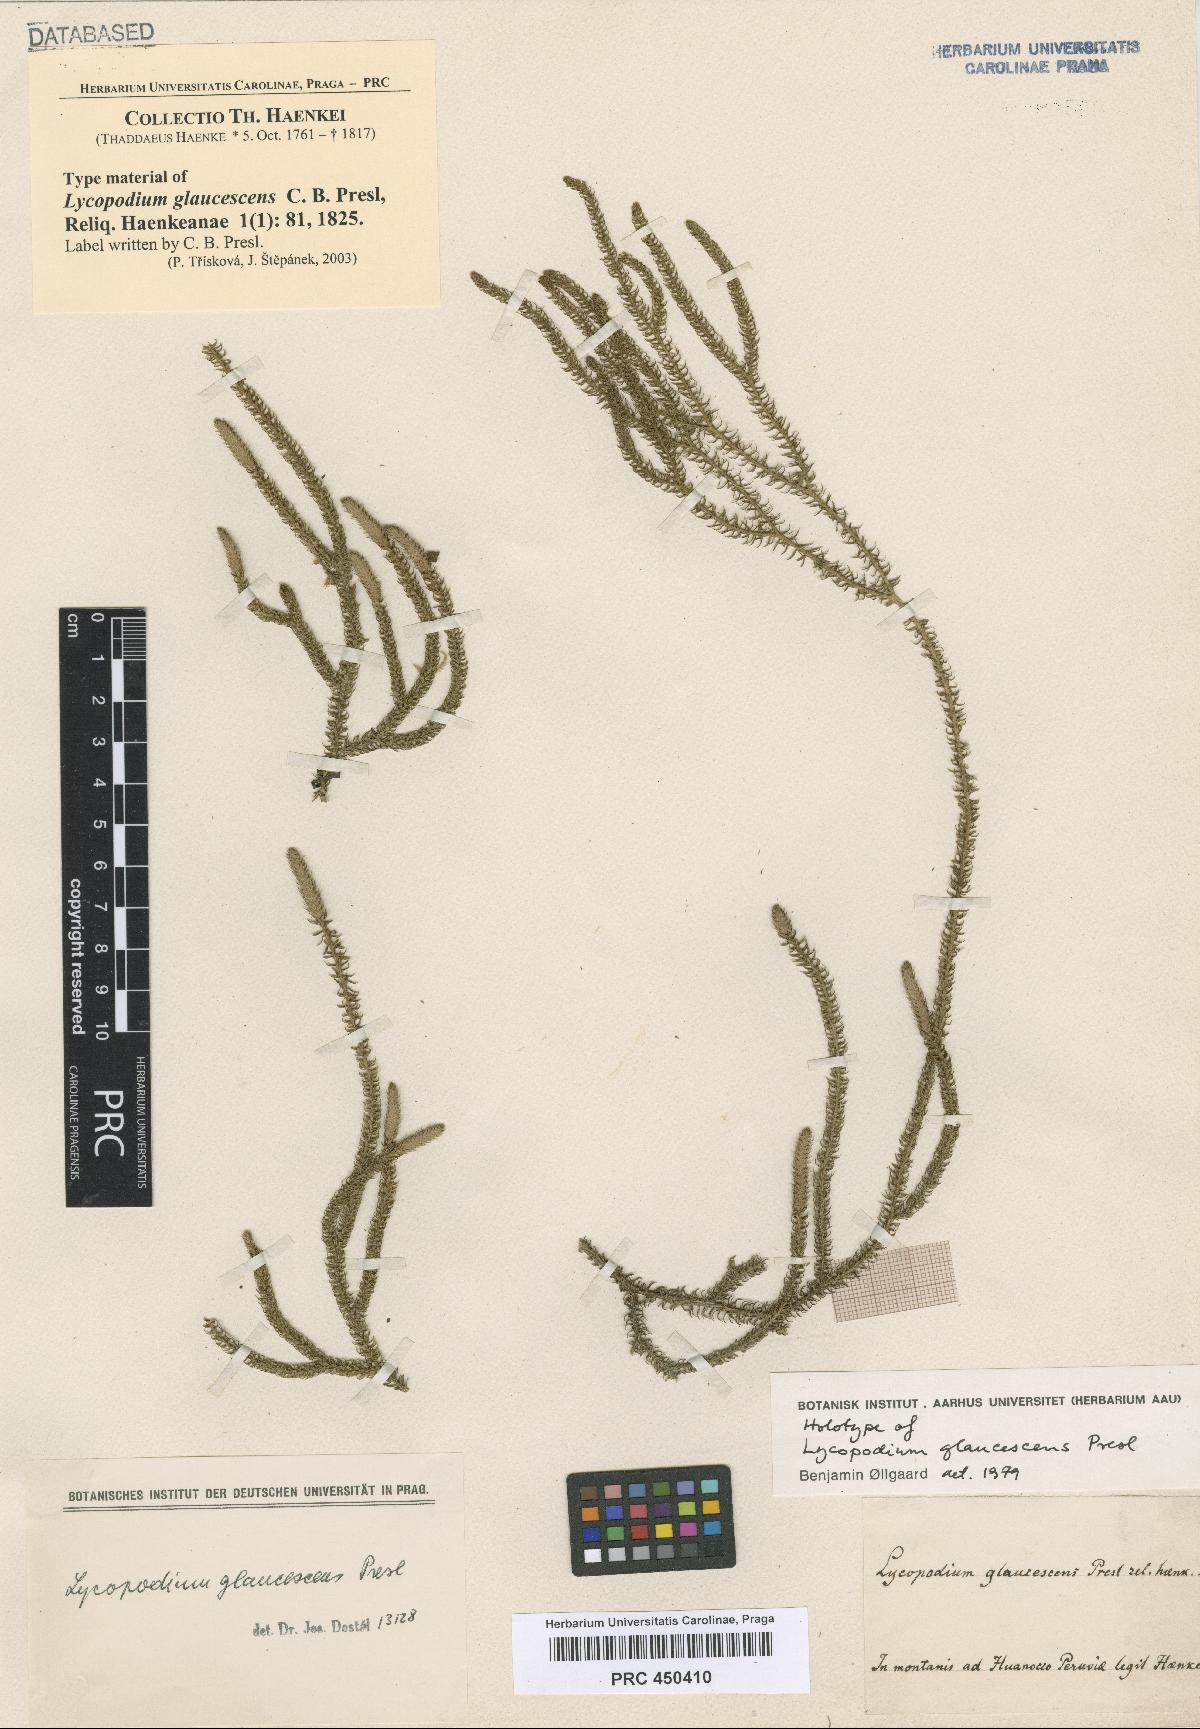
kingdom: Plantae
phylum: Tracheophyta
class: Lycopodiopsida
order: Lycopodiales
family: Lycopodiaceae
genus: Palhinhaea
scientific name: Palhinhaea glaucescens
